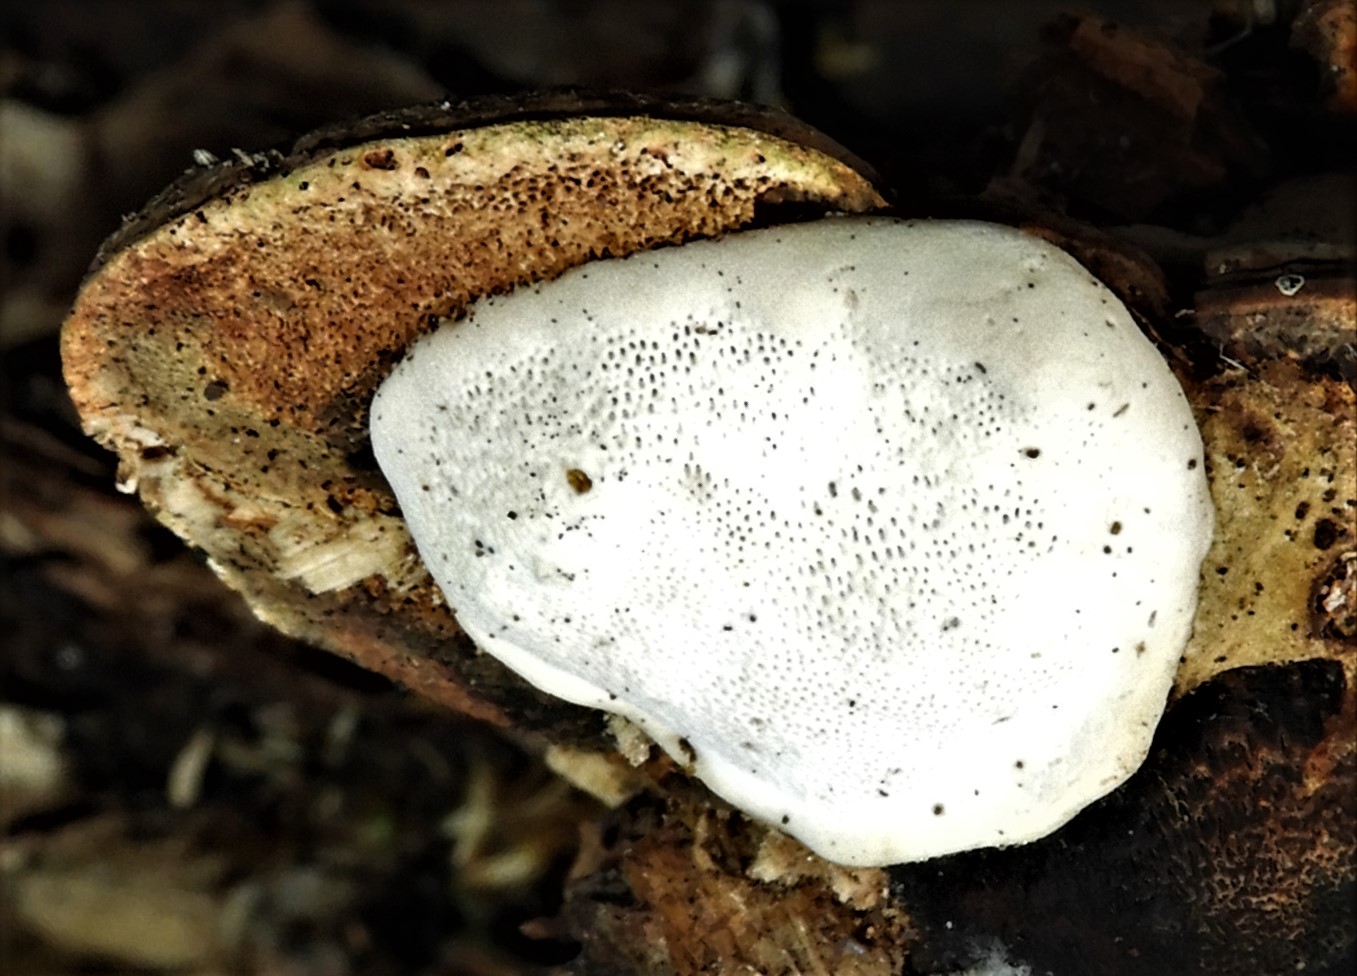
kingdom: Fungi
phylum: Basidiomycota
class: Agaricomycetes
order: Polyporales
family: Polyporaceae
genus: Ganoderma
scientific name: Ganoderma applanatum
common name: flad lakporesvamp
